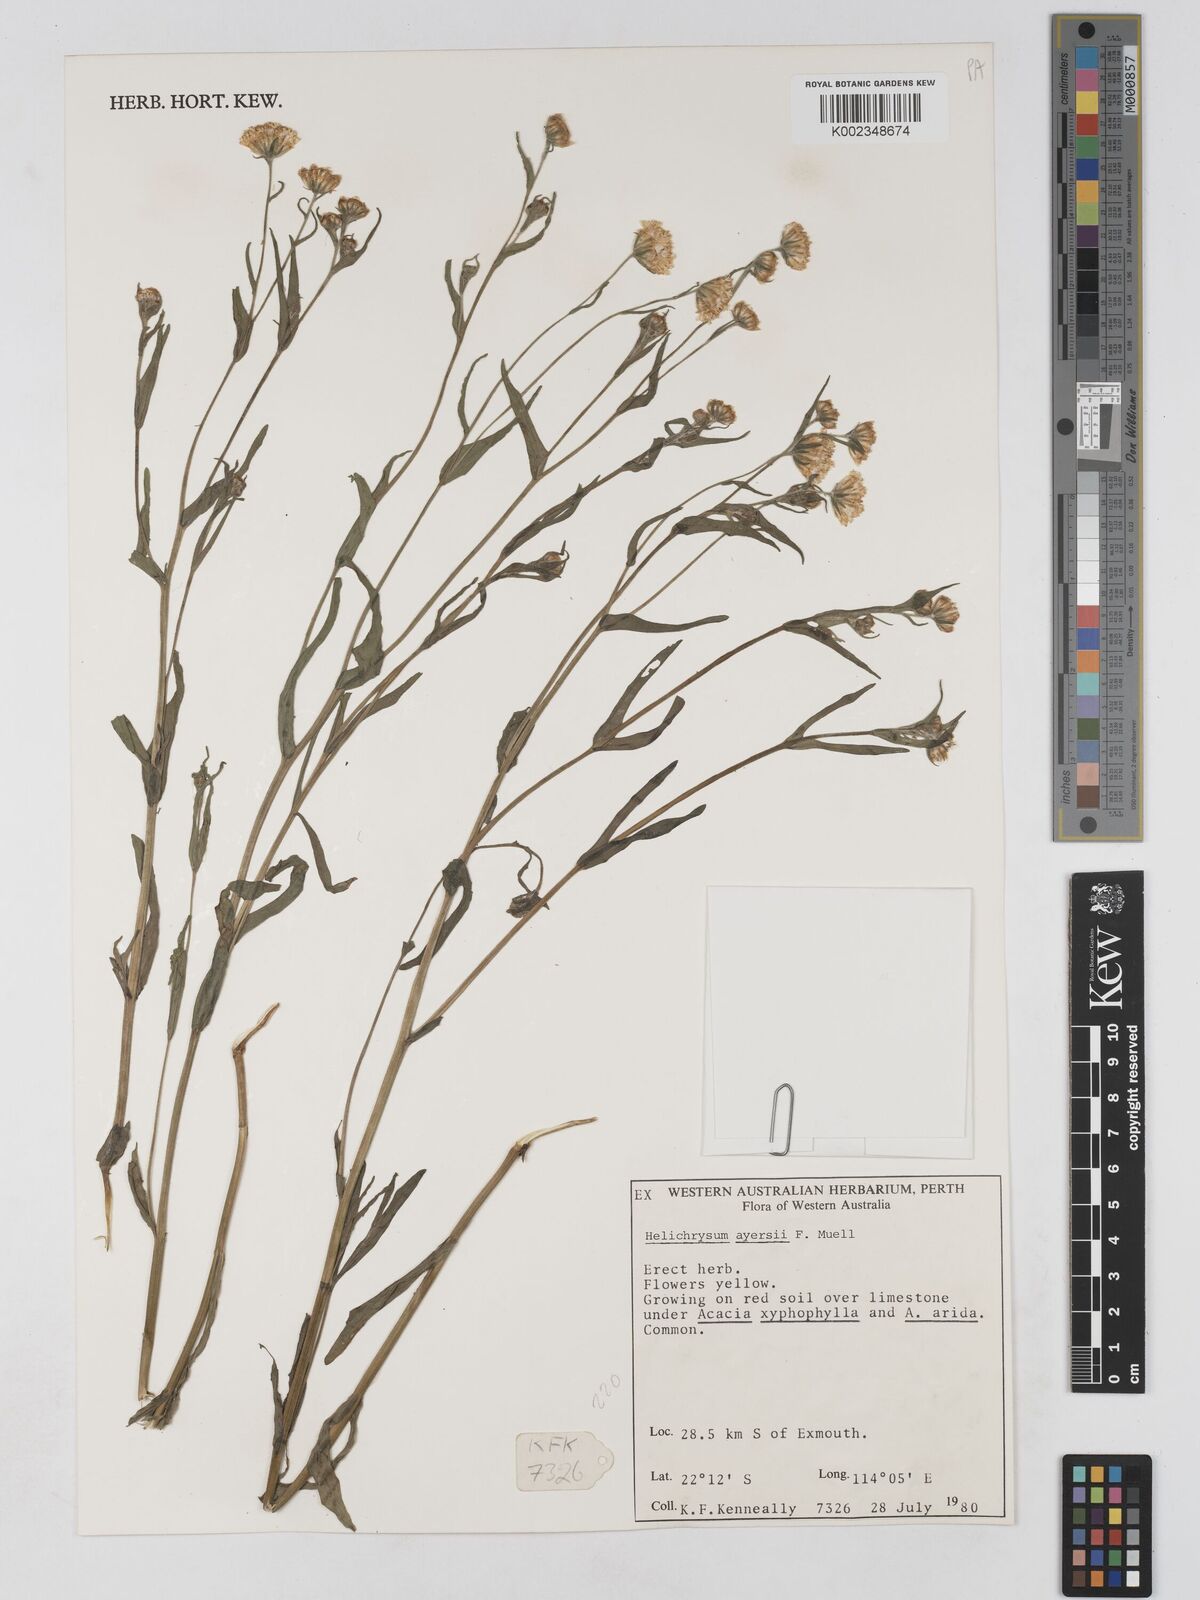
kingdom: Plantae
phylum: Tracheophyta
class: Magnoliopsida
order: Asterales
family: Asteraceae
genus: Schoenia
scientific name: Schoenia ayersii
